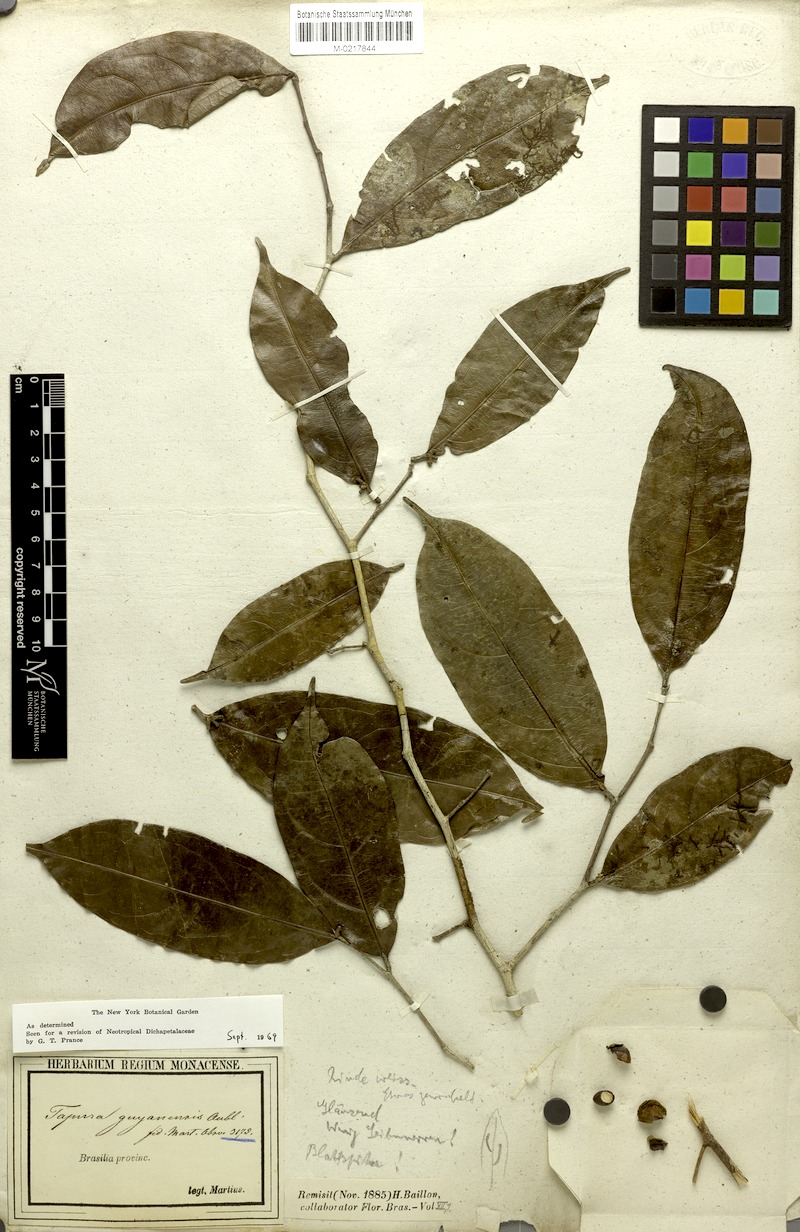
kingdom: Plantae
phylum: Tracheophyta
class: Magnoliopsida
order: Malpighiales
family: Dichapetalaceae
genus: Tapura
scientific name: Tapura guianensis
